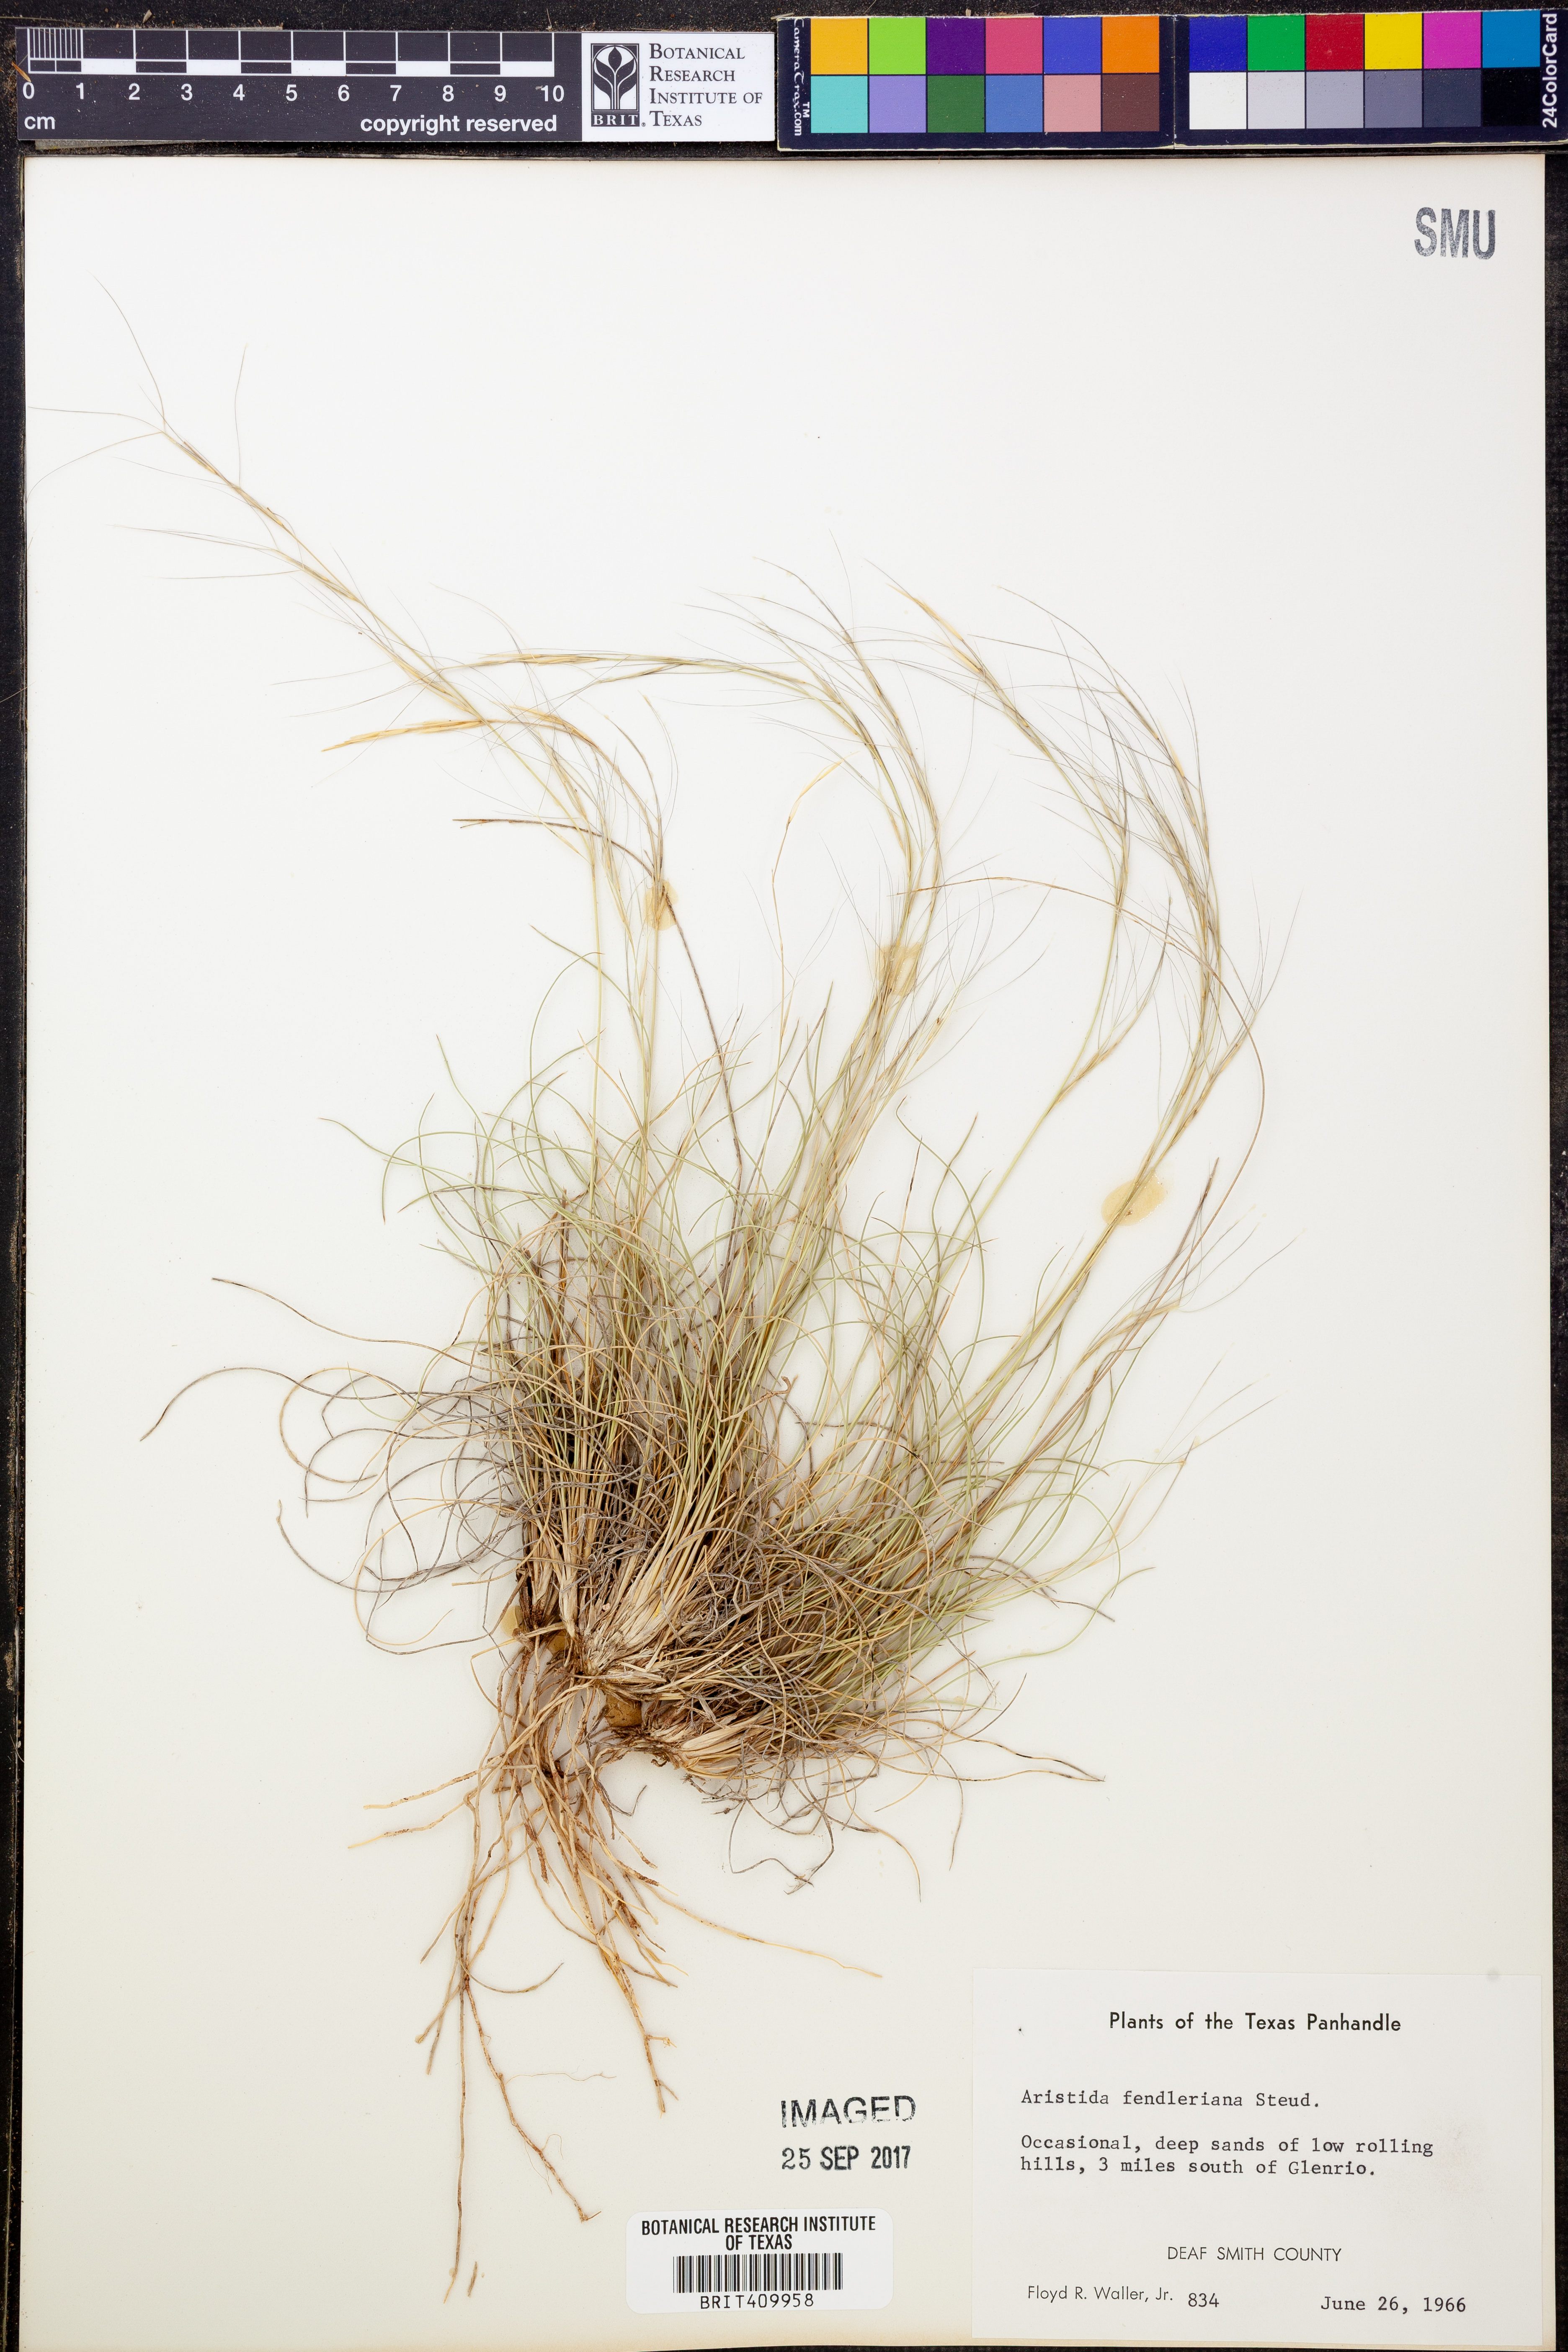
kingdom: Plantae
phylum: Tracheophyta
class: Liliopsida
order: Poales
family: Poaceae
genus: Aristida
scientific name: Aristida fendleriana
